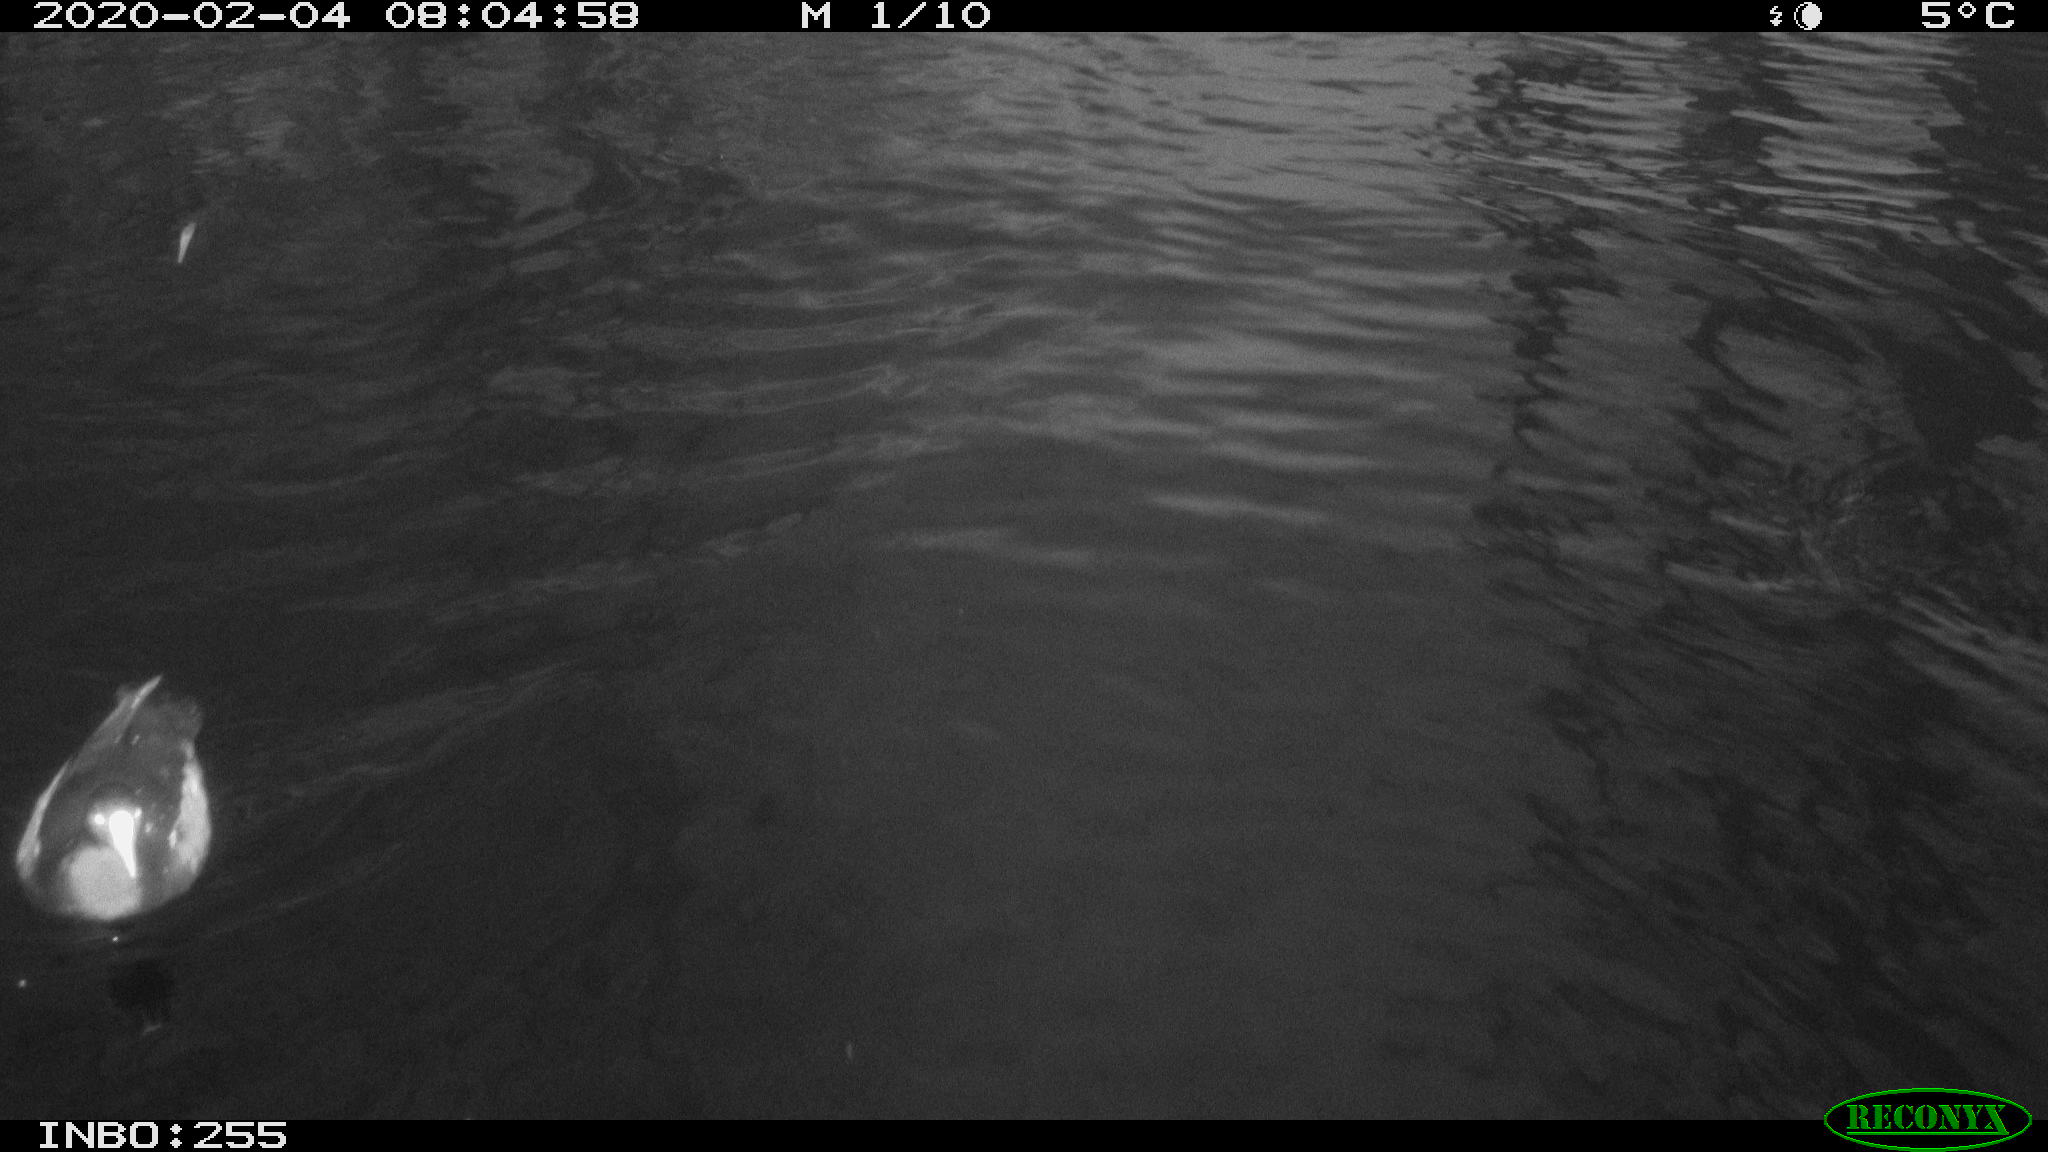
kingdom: Animalia
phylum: Chordata
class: Aves
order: Gruiformes
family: Rallidae
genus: Gallinula
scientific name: Gallinula chloropus
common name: Common moorhen
